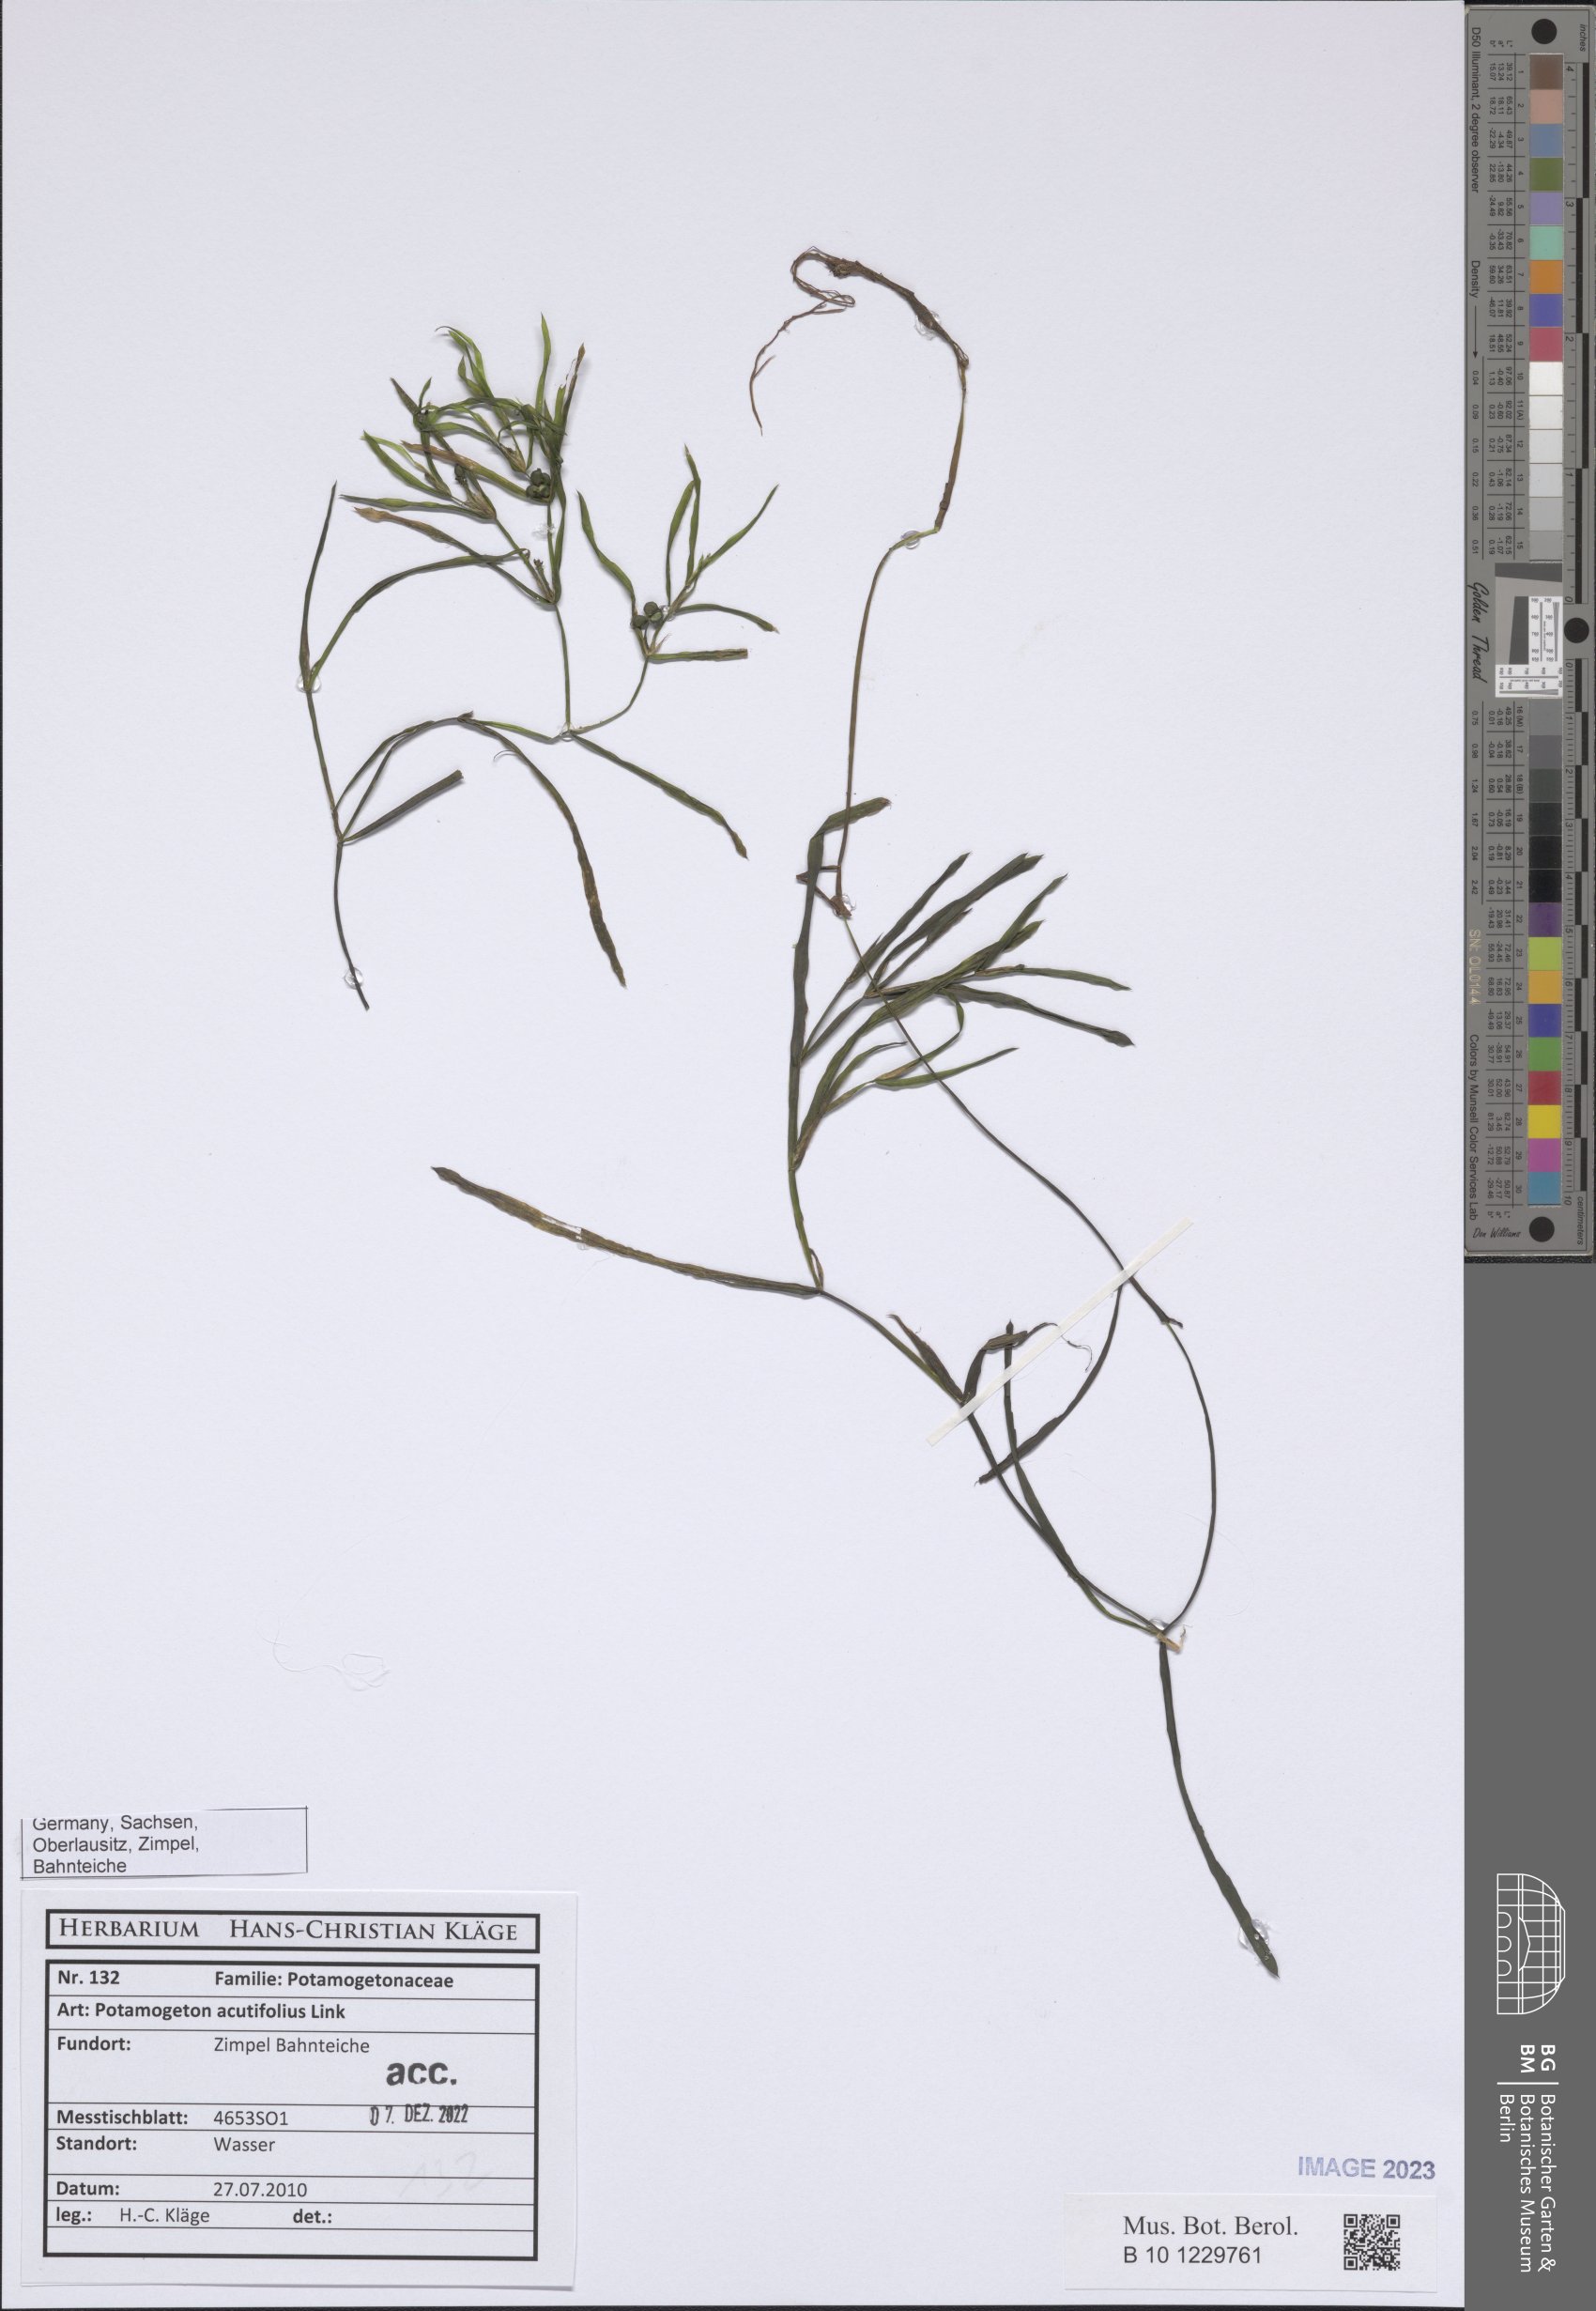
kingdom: Plantae
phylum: Tracheophyta
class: Liliopsida
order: Alismatales
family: Potamogetonaceae
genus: Potamogeton
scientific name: Potamogeton acutifolius
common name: Sharp-leaved pondweed
